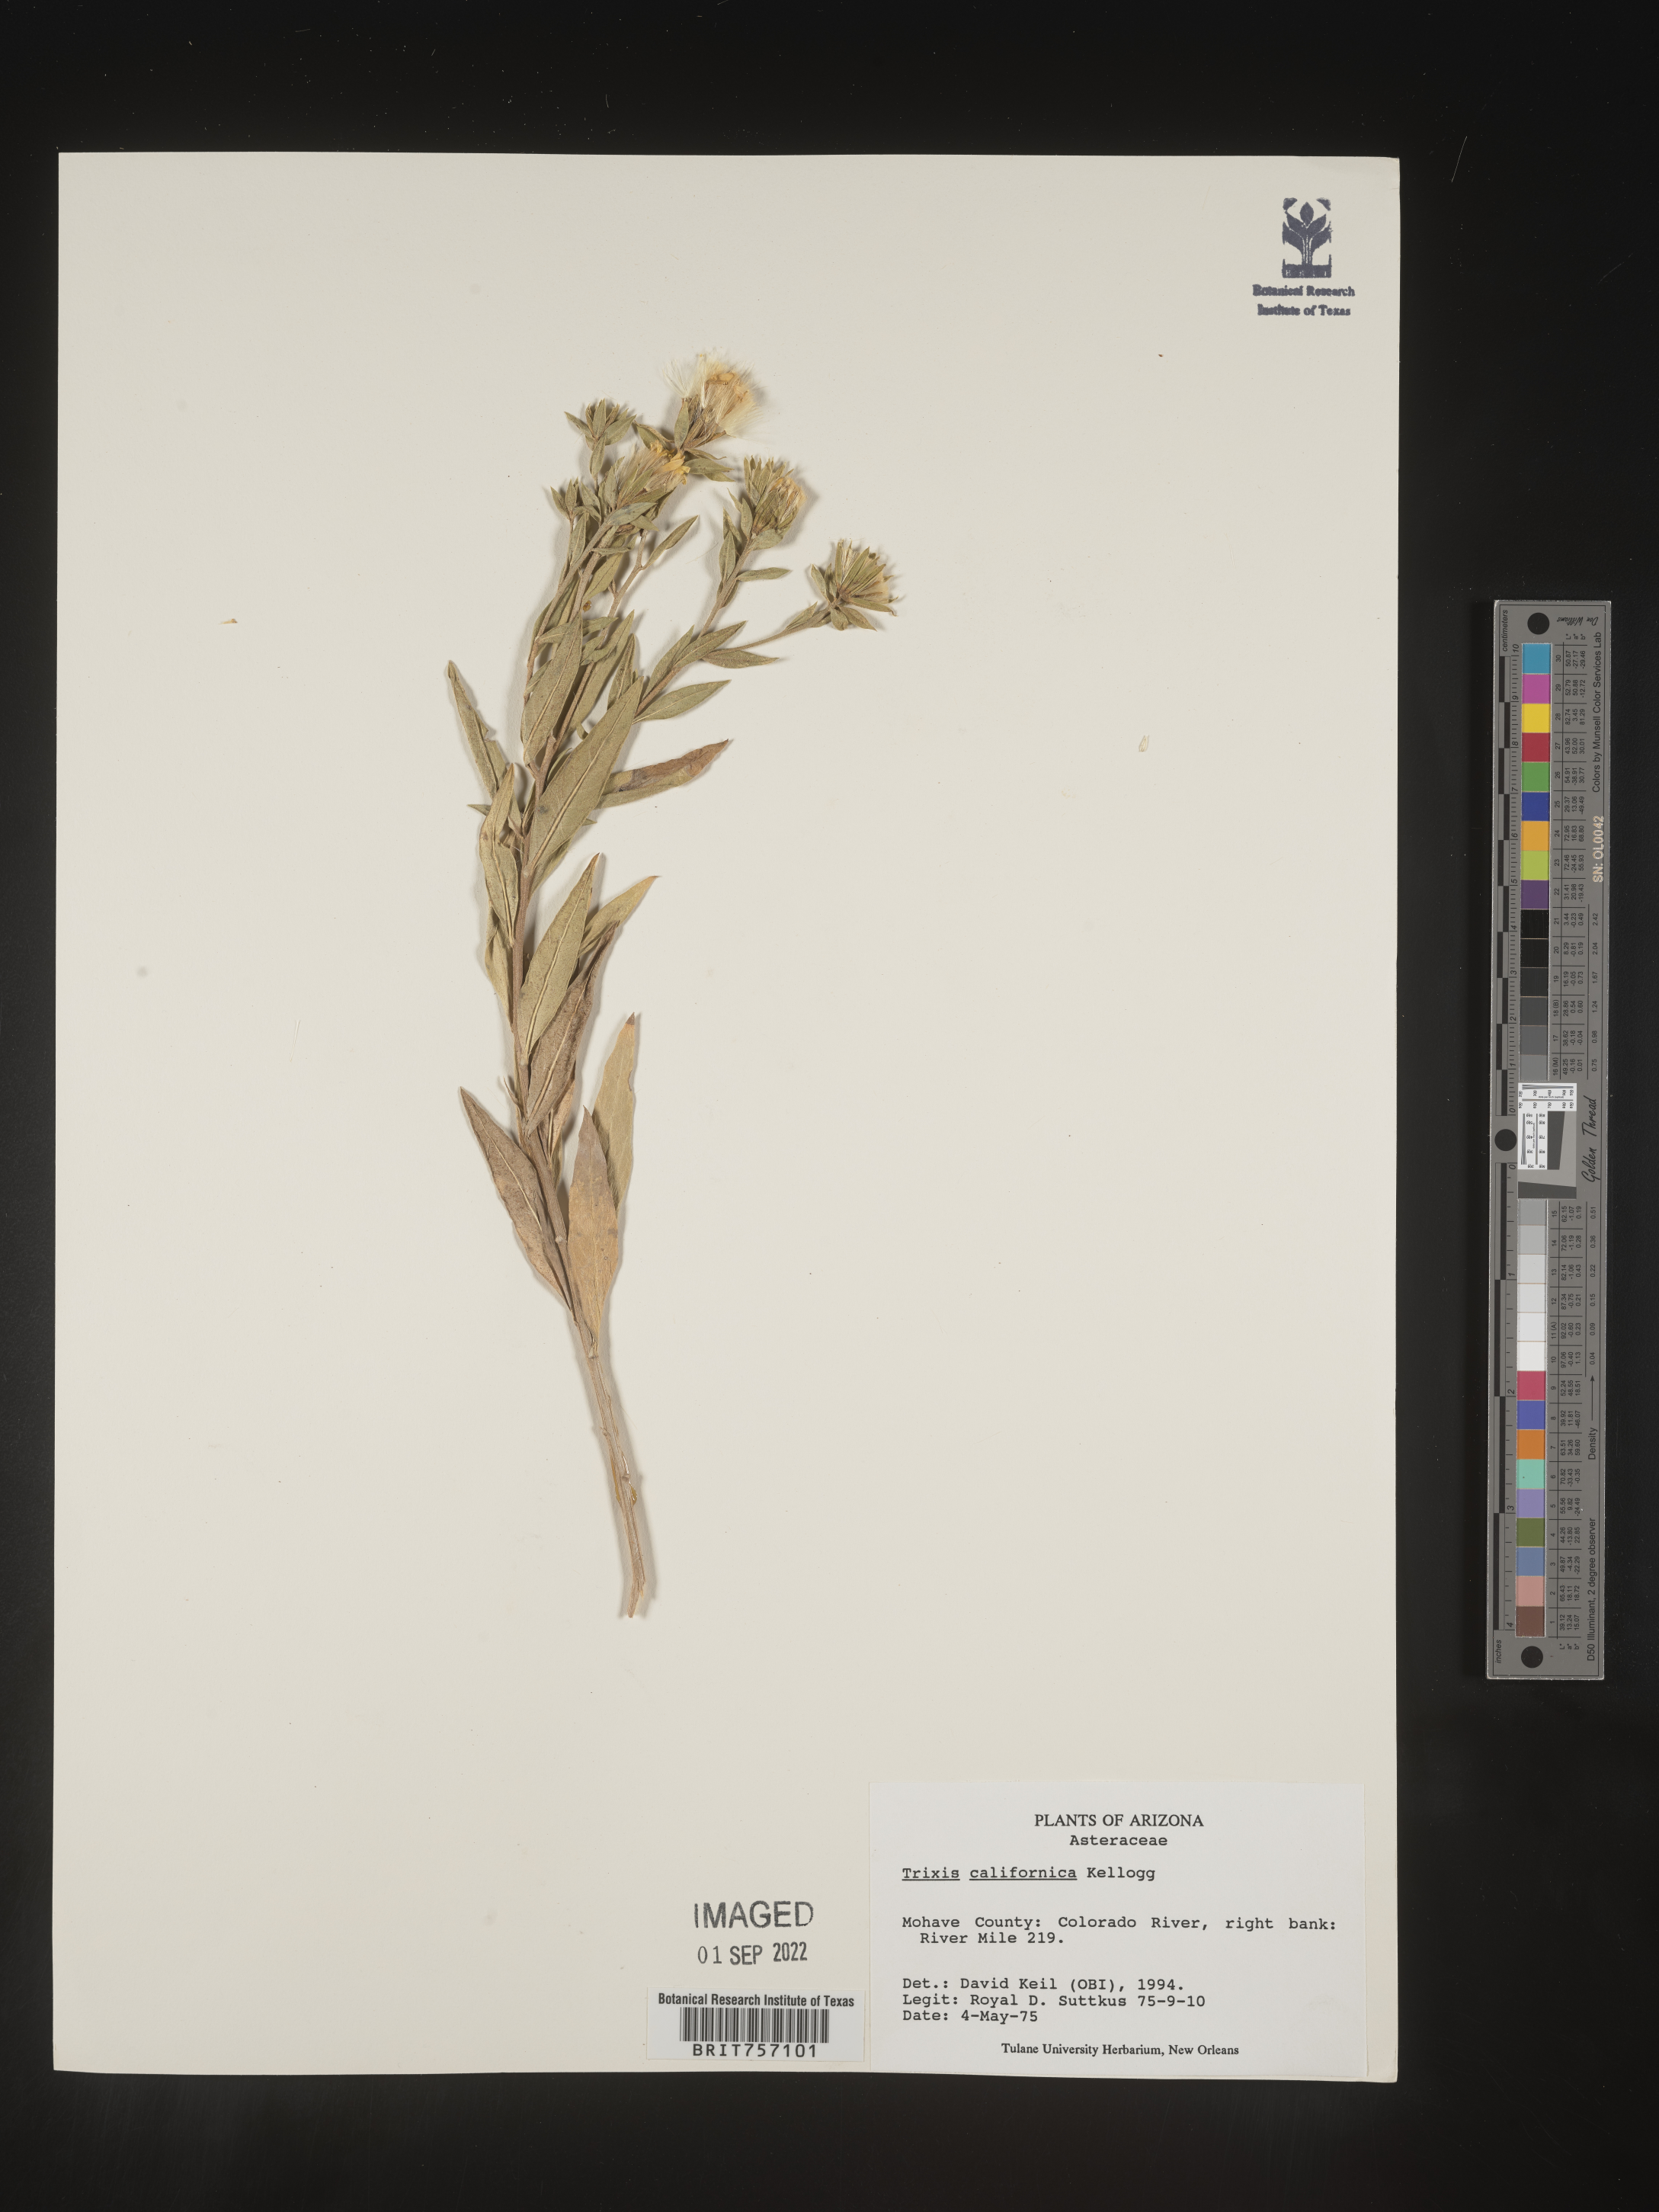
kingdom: Plantae
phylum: Tracheophyta
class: Magnoliopsida
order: Asterales
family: Asteraceae
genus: Trixis
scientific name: Trixis
